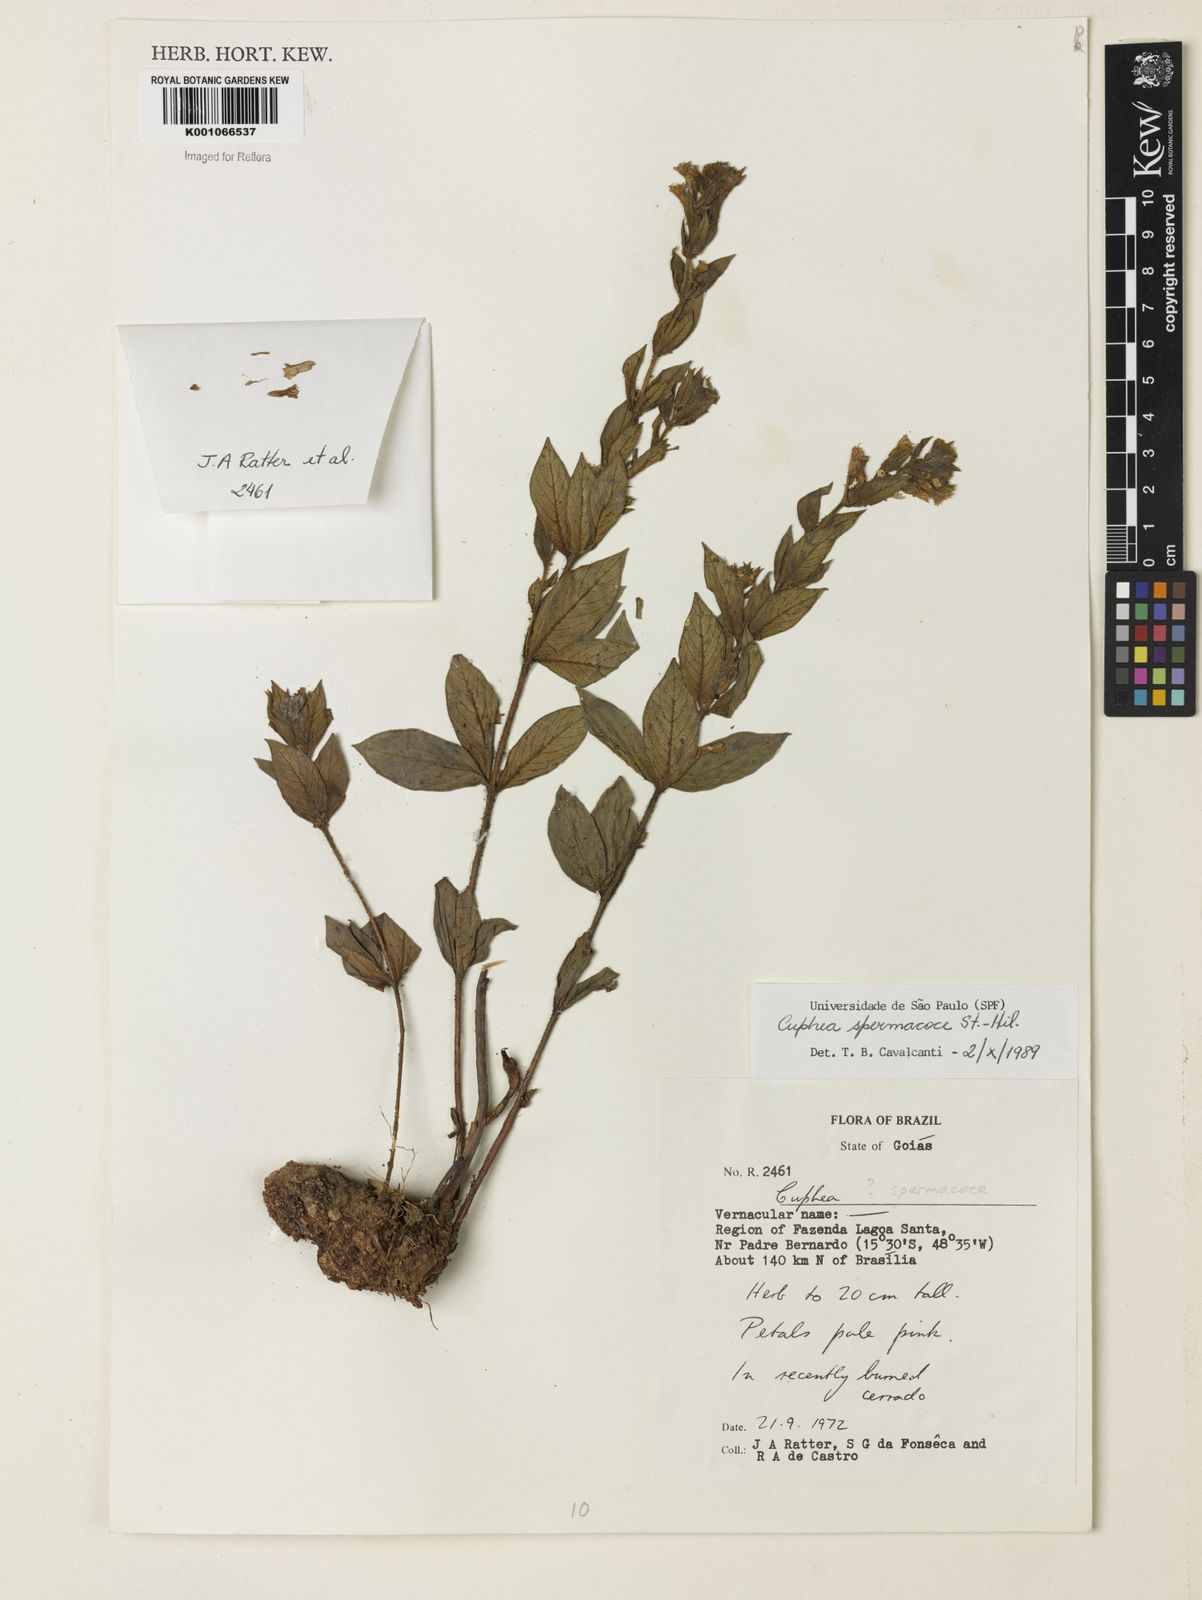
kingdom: Plantae
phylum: Tracheophyta
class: Magnoliopsida
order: Myrtales
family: Lythraceae
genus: Cuphea
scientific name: Cuphea spermacoce
